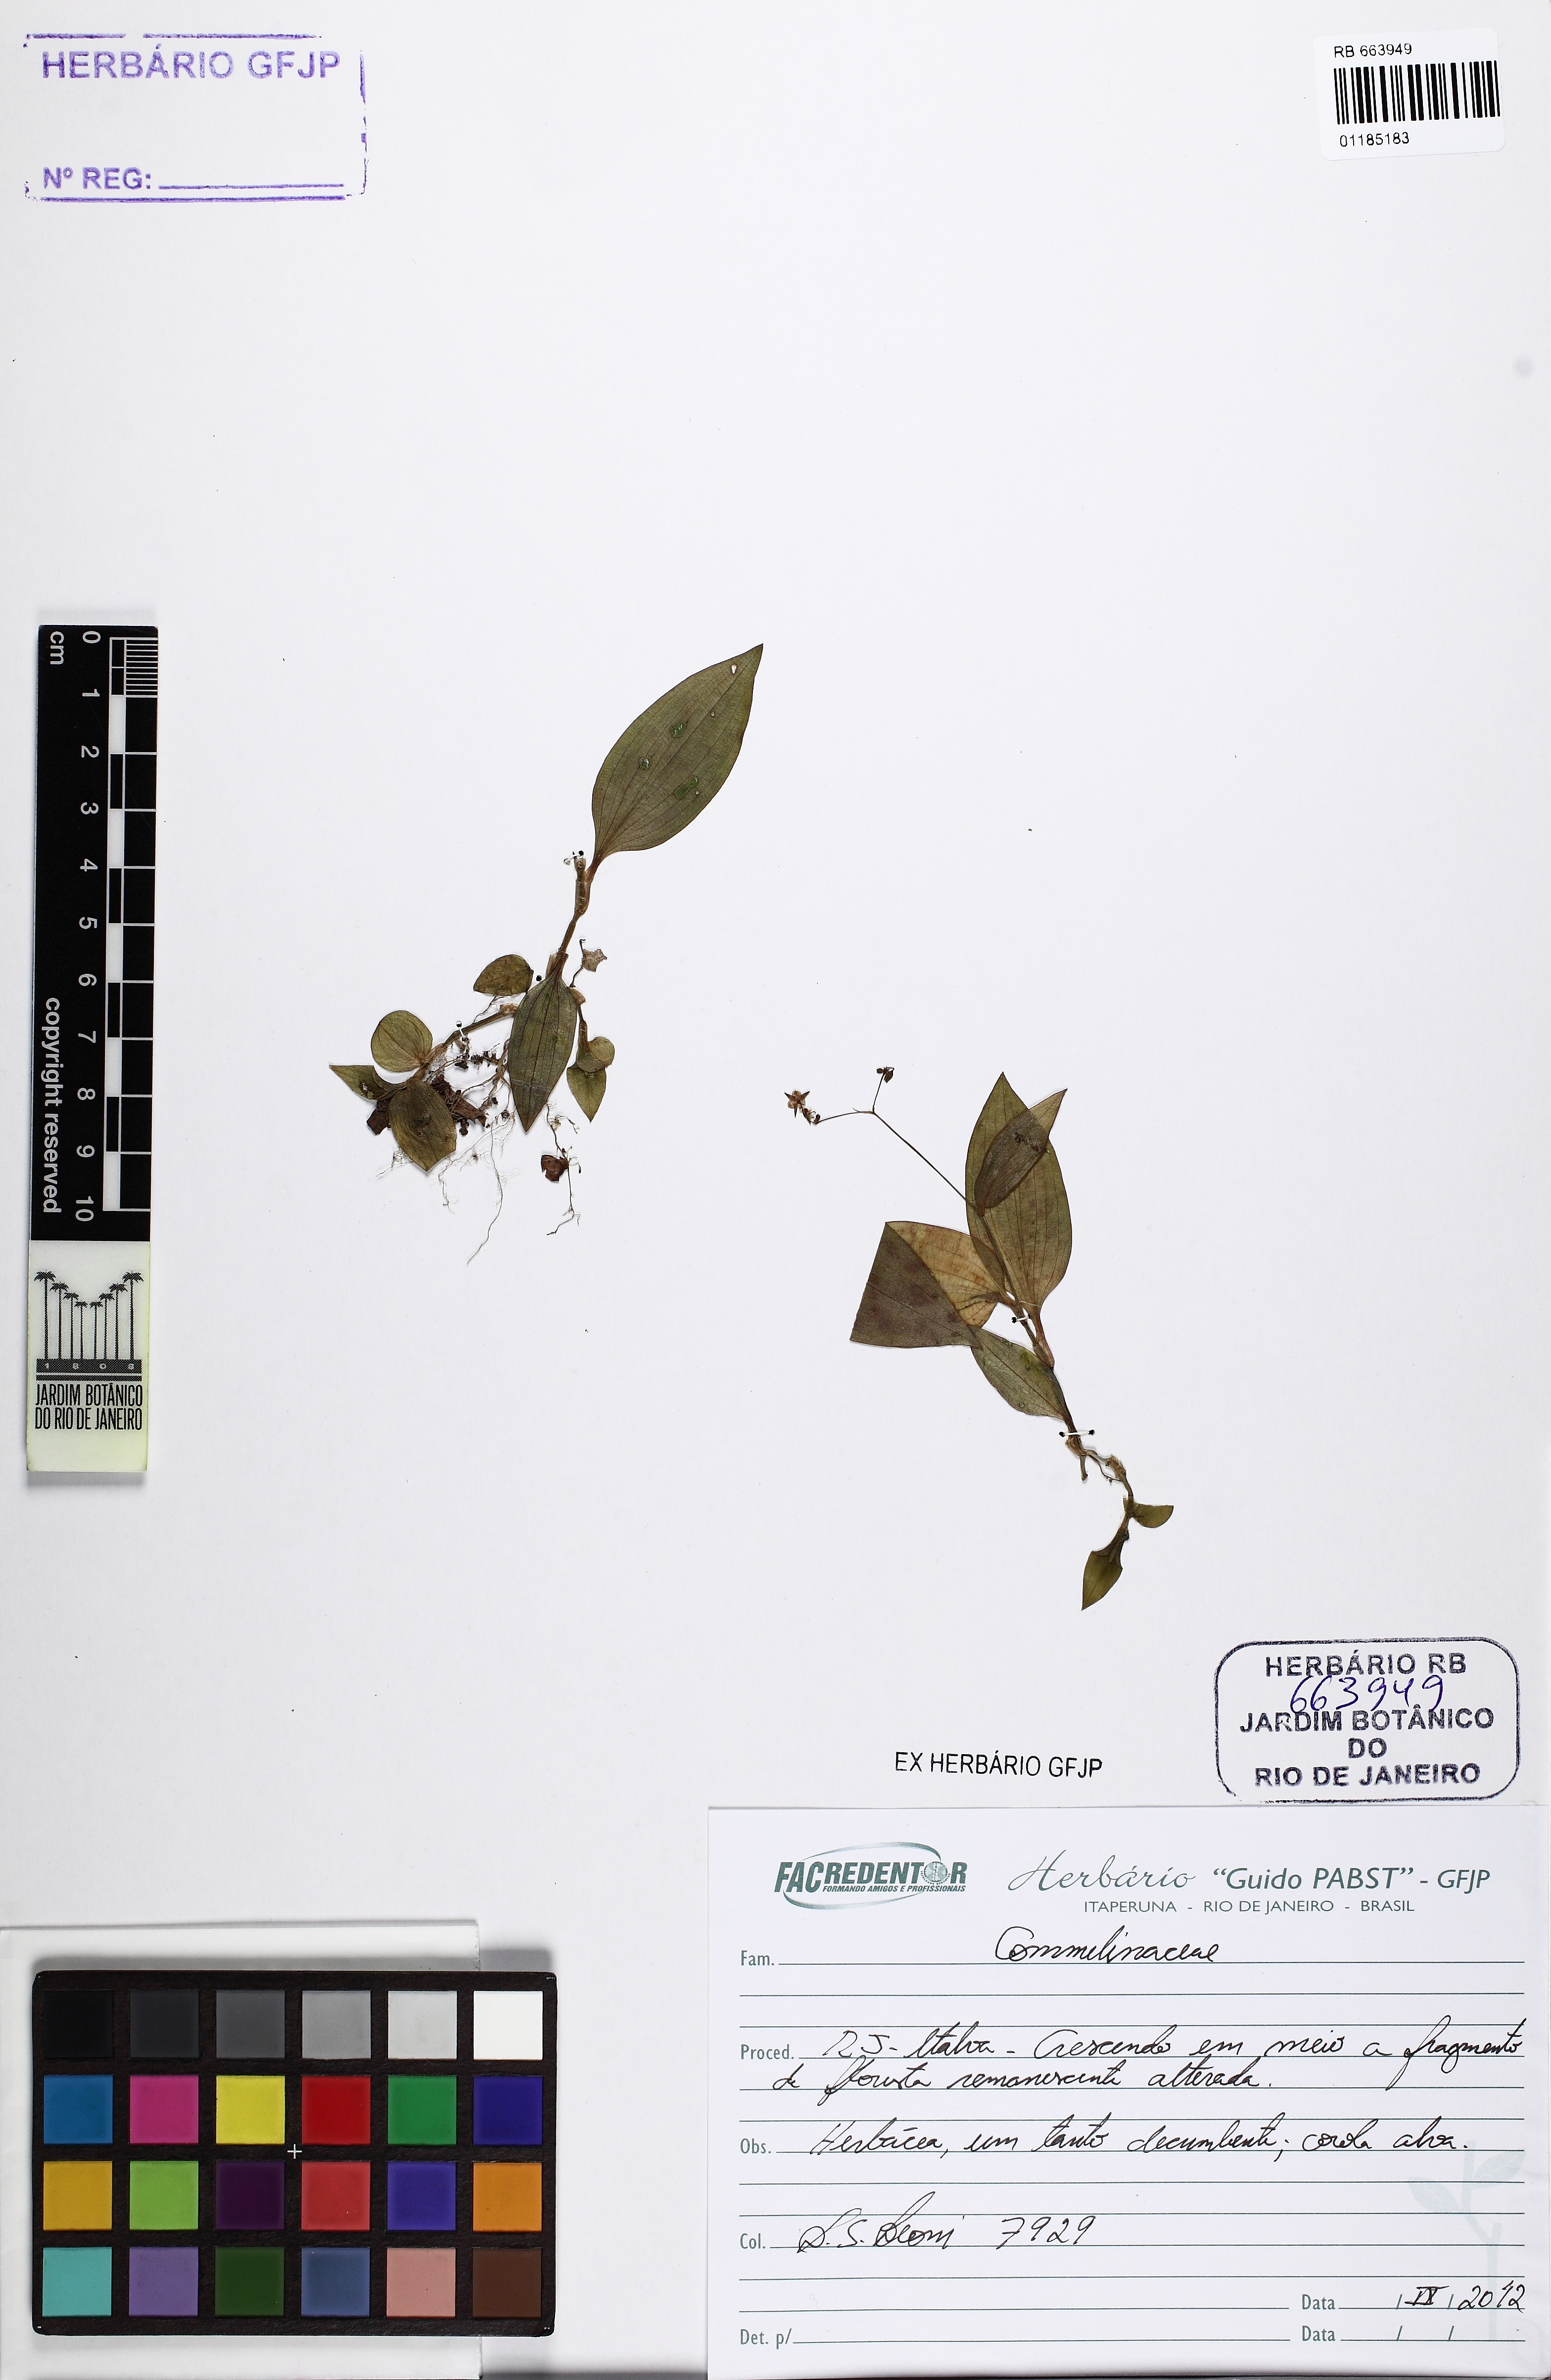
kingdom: Plantae
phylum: Tracheophyta
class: Liliopsida
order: Commelinales
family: Commelinaceae
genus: Gibasis
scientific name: Gibasis geniculata
